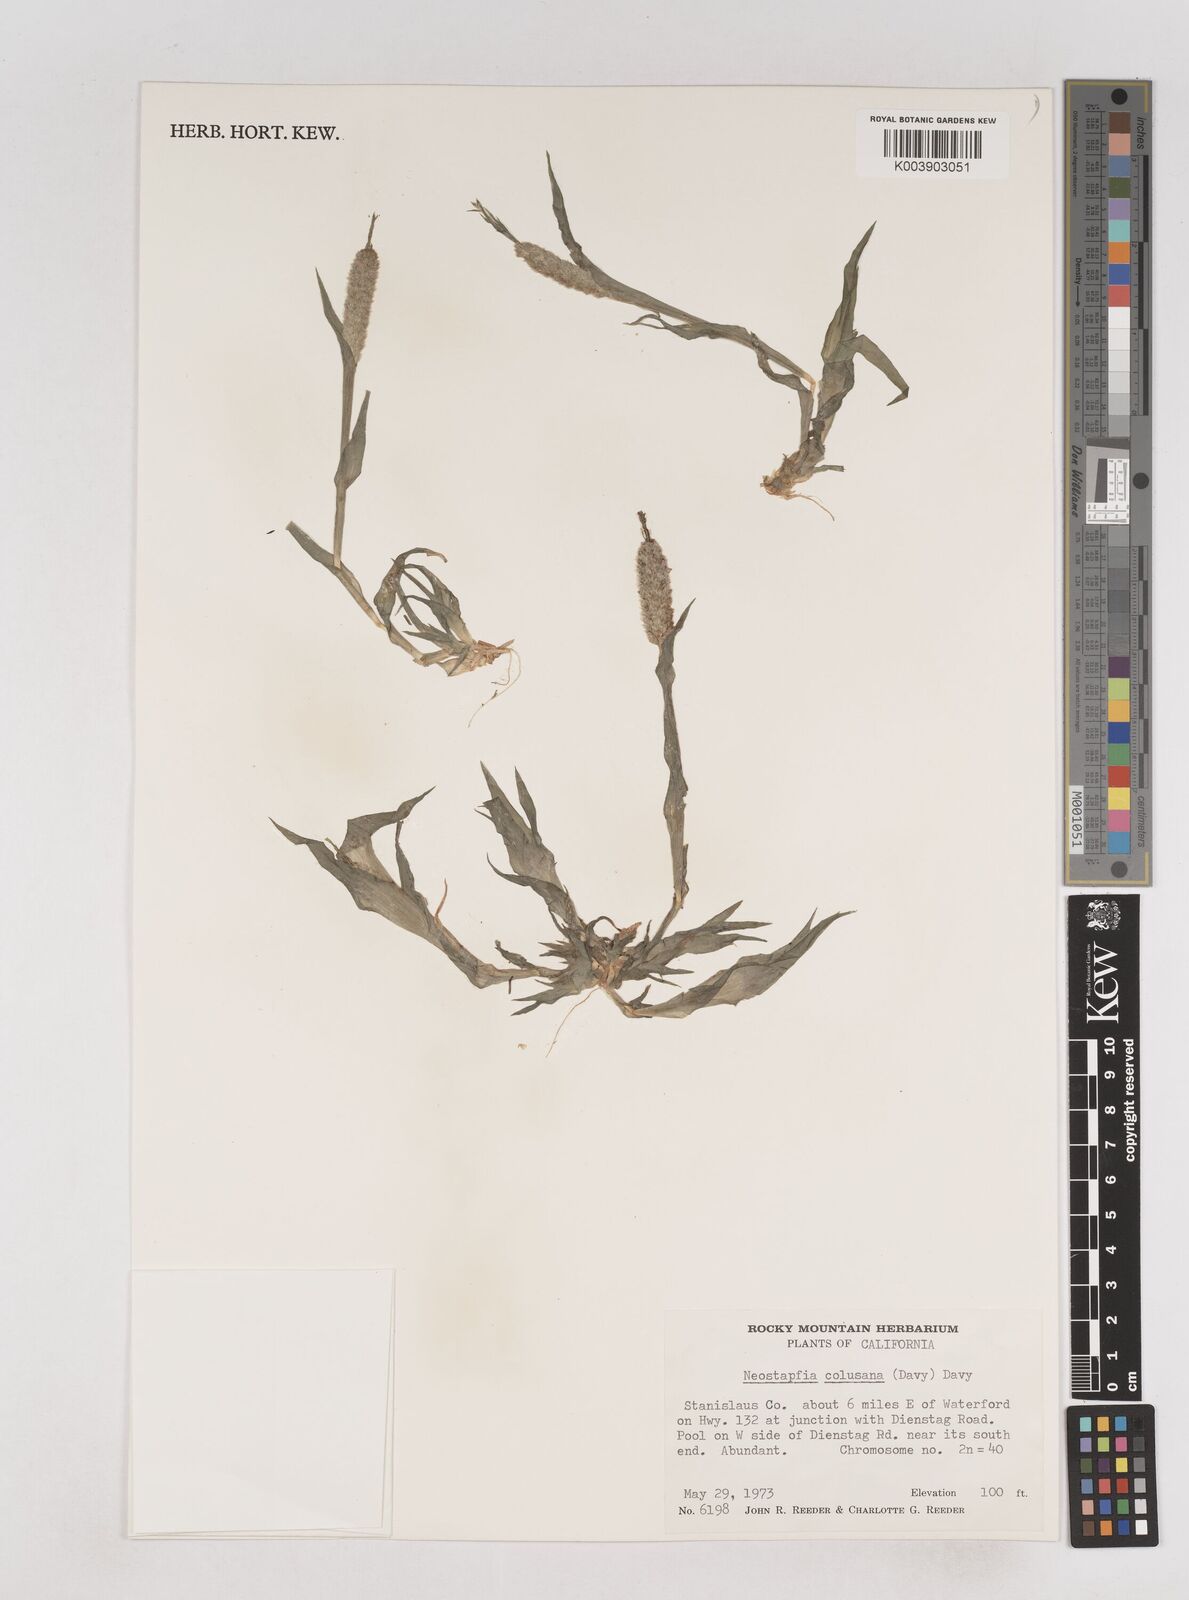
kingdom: Plantae
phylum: Tracheophyta
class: Liliopsida
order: Poales
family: Poaceae
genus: Neostapfia
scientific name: Neostapfia colusana
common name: Colusa grass
